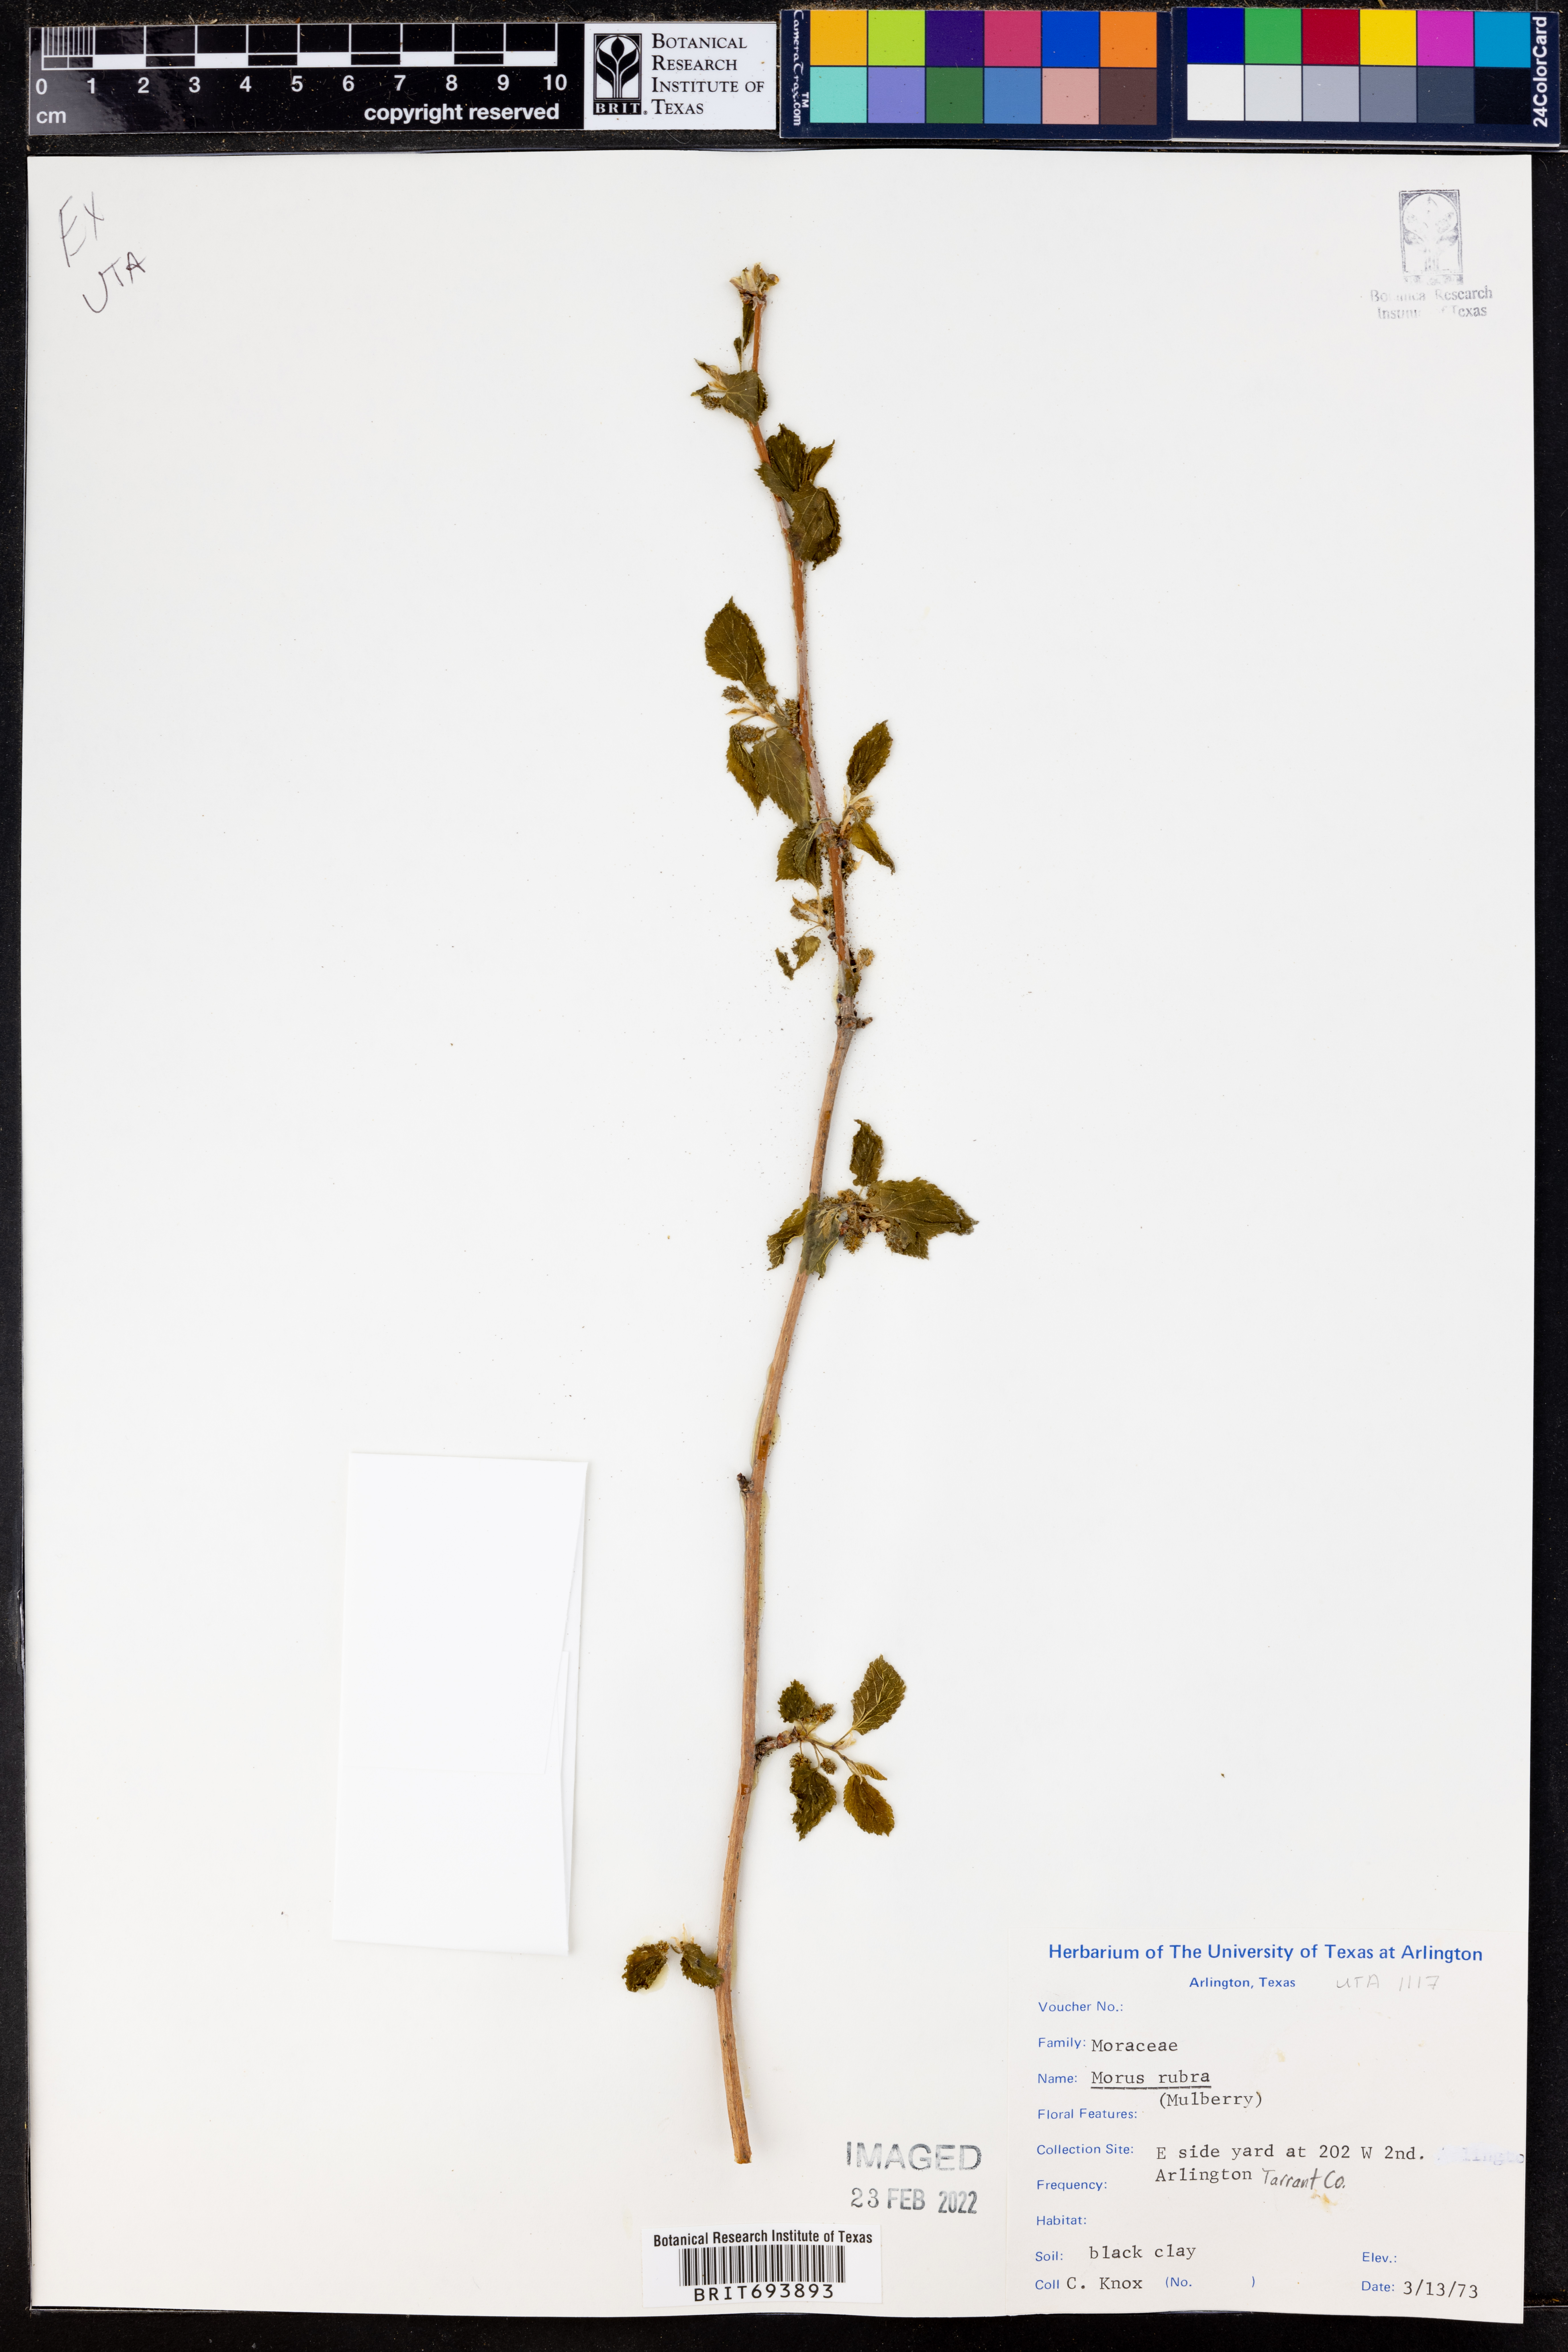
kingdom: Plantae
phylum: Tracheophyta
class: Magnoliopsida
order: Rosales
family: Moraceae
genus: Morus
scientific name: Morus rubra
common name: Red mulberry
